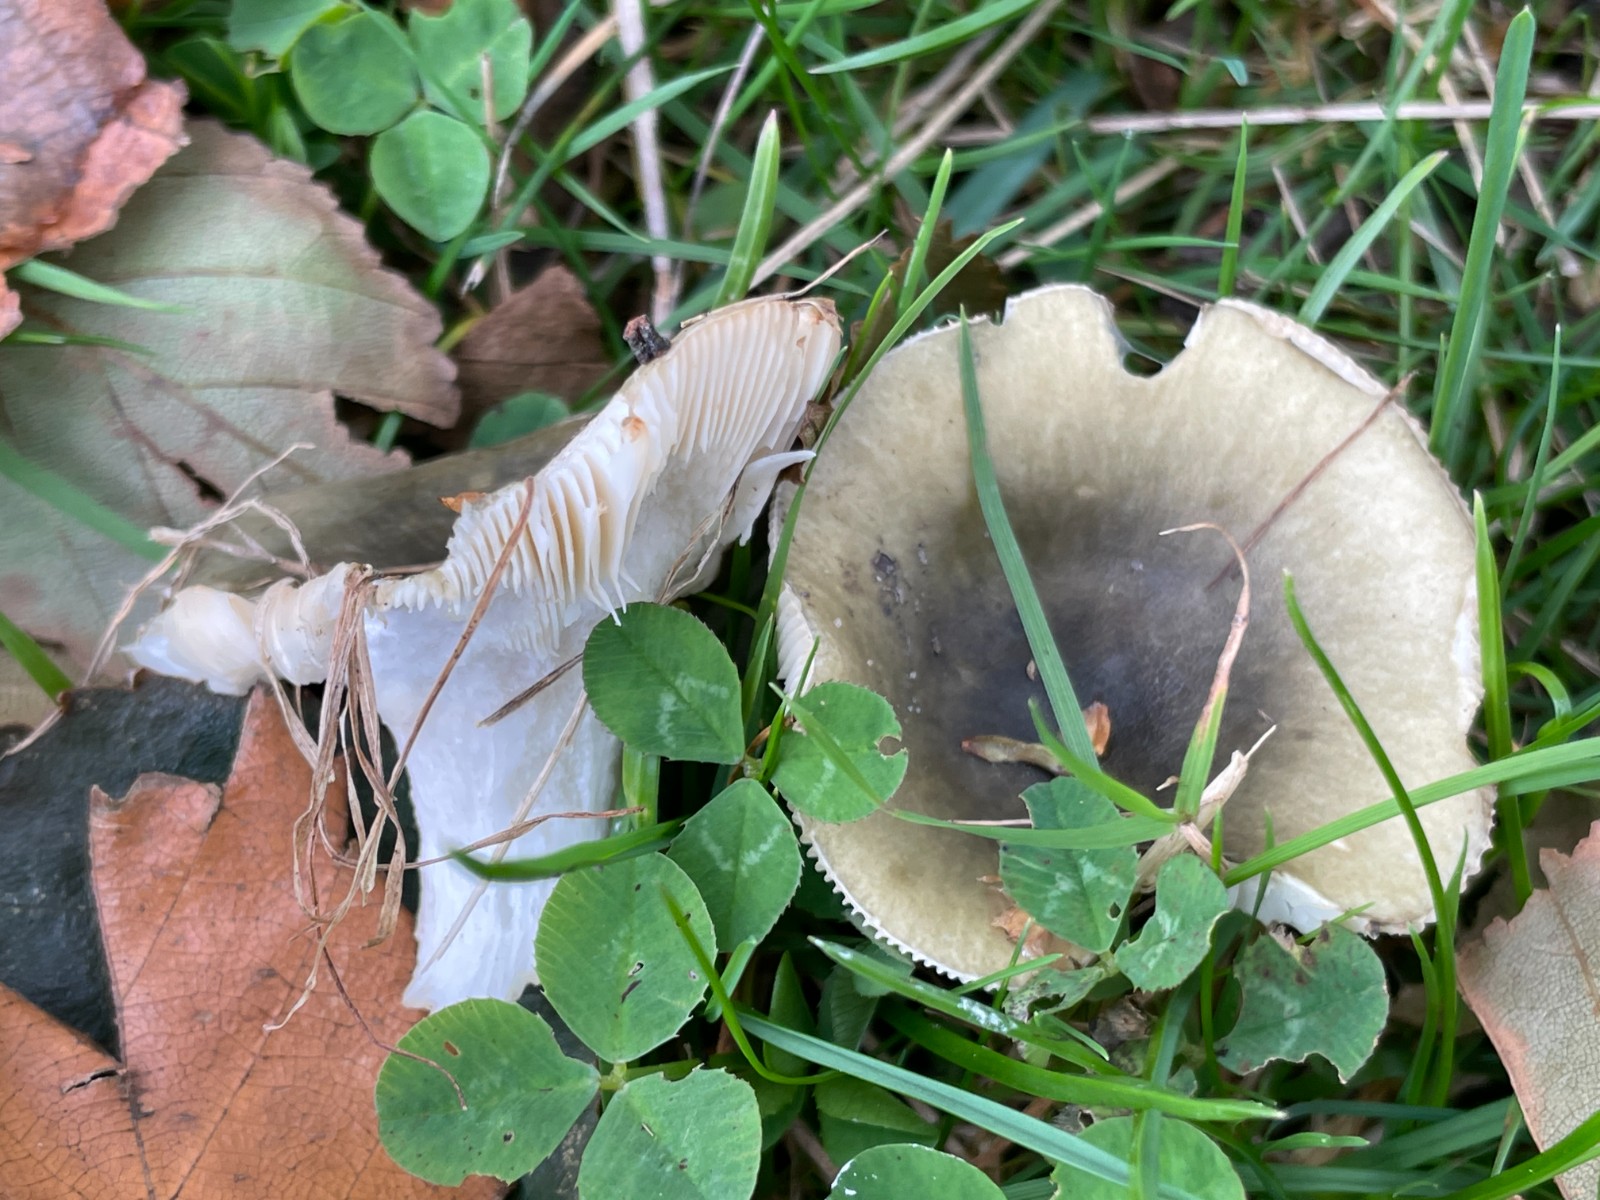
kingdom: Fungi
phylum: Basidiomycota
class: Agaricomycetes
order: Russulales
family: Russulaceae
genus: Russula
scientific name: Russula aeruginea
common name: græsgrøn skørhat
